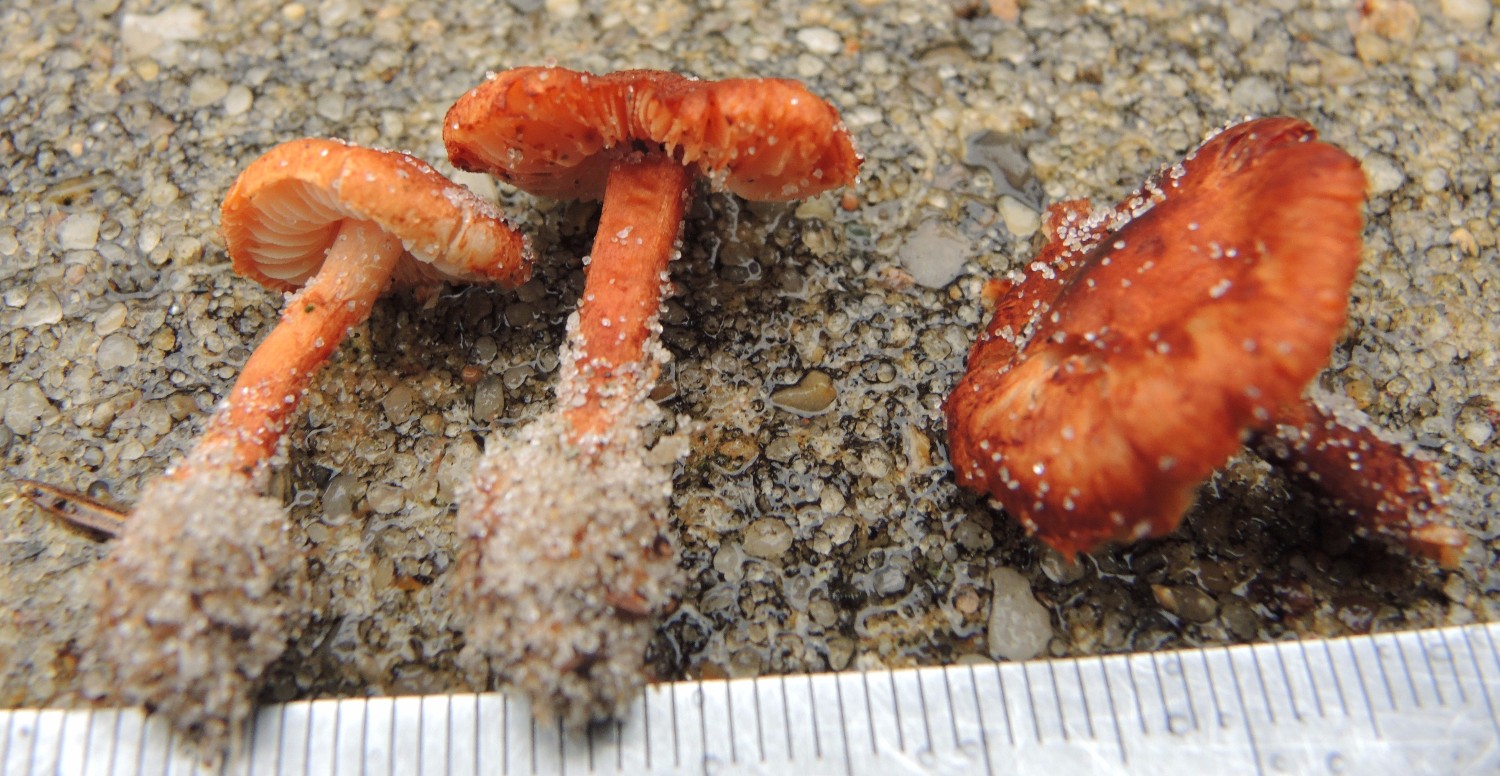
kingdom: Fungi
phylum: Basidiomycota
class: Agaricomycetes
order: Agaricales
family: Agaricaceae
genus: Lepiota
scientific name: Lepiota castanea
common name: kastaniebrun parasolhat
